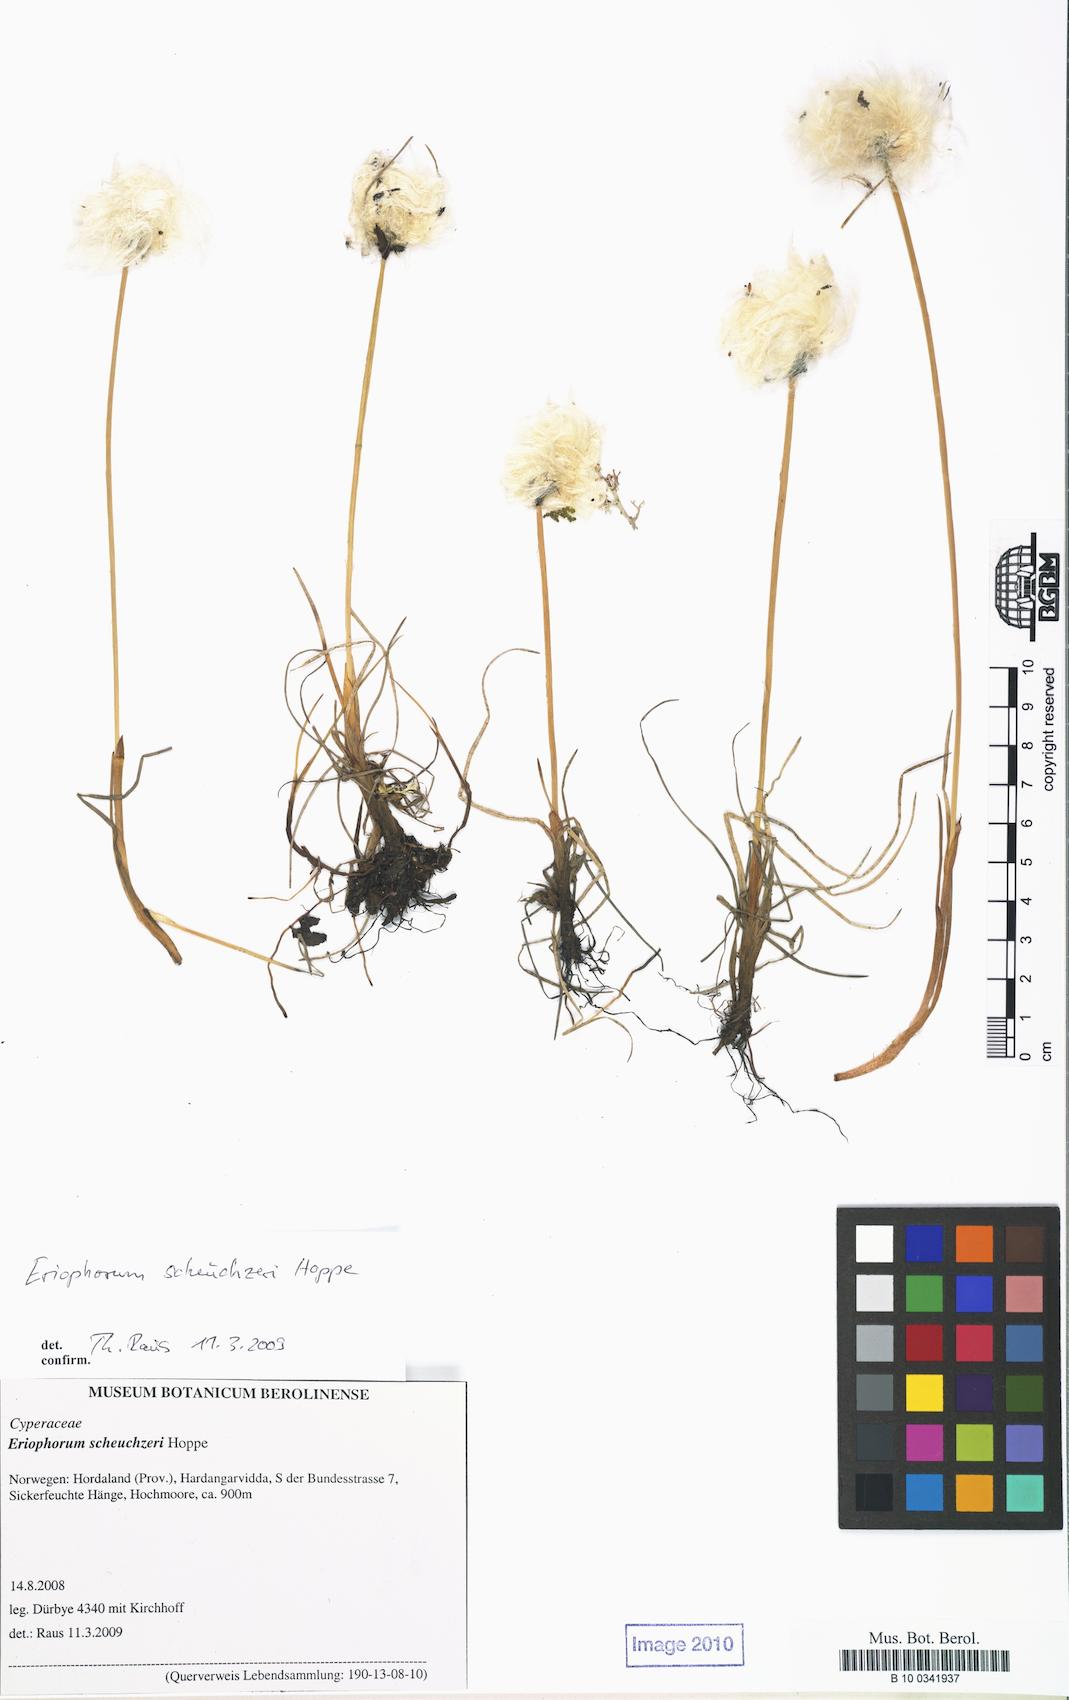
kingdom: Plantae
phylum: Tracheophyta
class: Liliopsida
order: Poales
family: Cyperaceae
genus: Eriophorum
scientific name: Eriophorum scheuchzeri
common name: Scheuchzer's cottongrass
